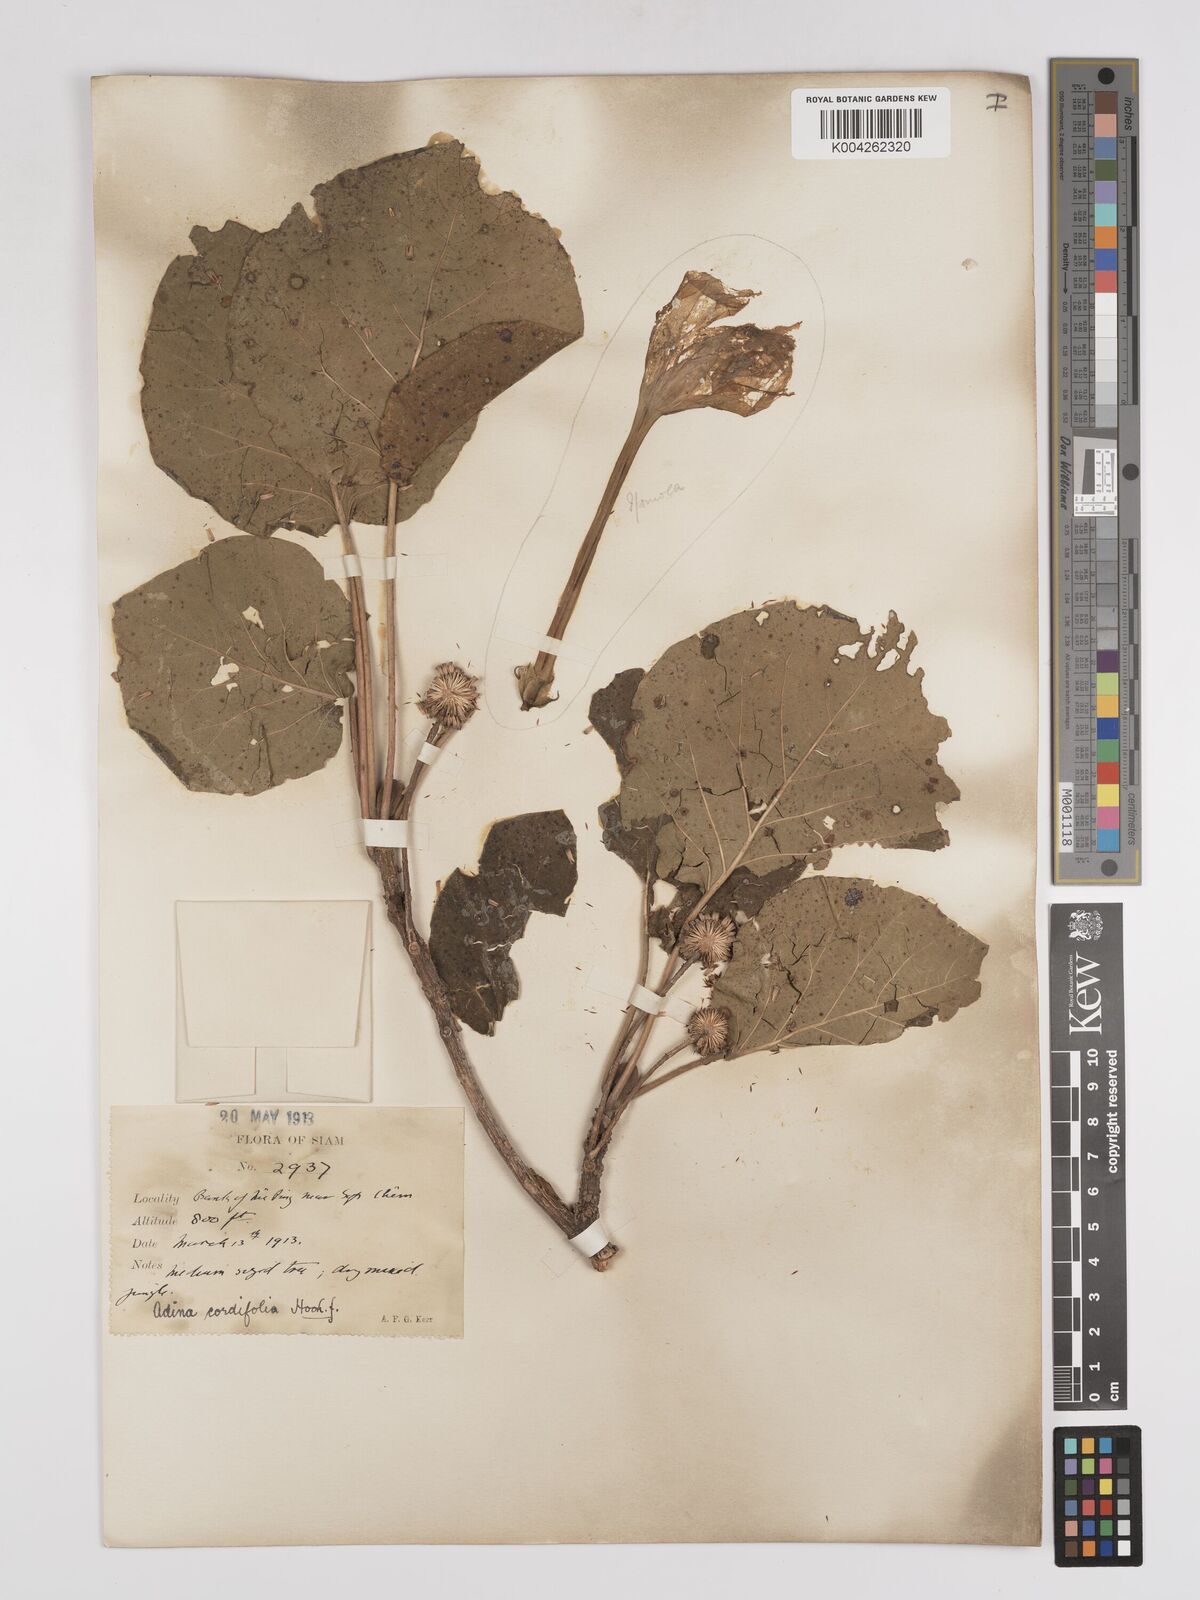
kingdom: Plantae
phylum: Tracheophyta
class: Magnoliopsida
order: Gentianales
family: Rubiaceae
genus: Adina
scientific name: Adina cordifolia
